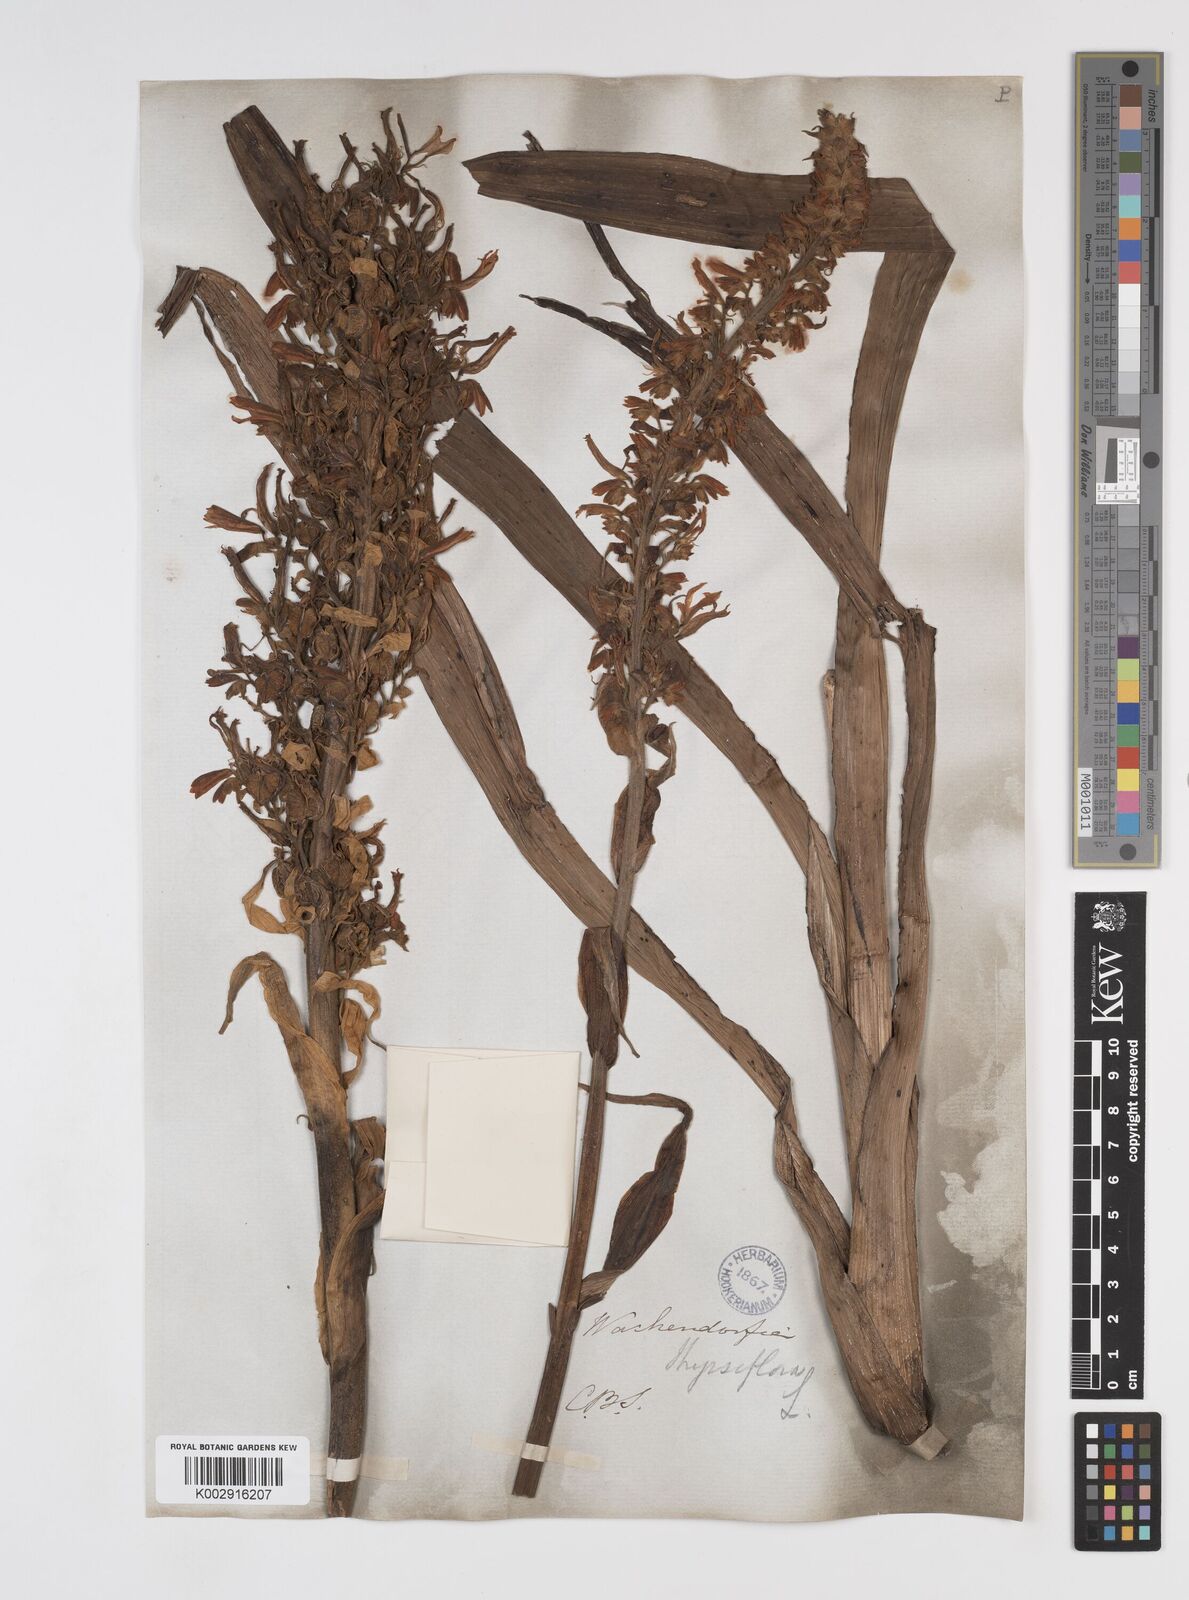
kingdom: Plantae
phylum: Tracheophyta
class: Liliopsida
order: Commelinales
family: Haemodoraceae
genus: Wachendorfia
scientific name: Wachendorfia thyrsiflora
